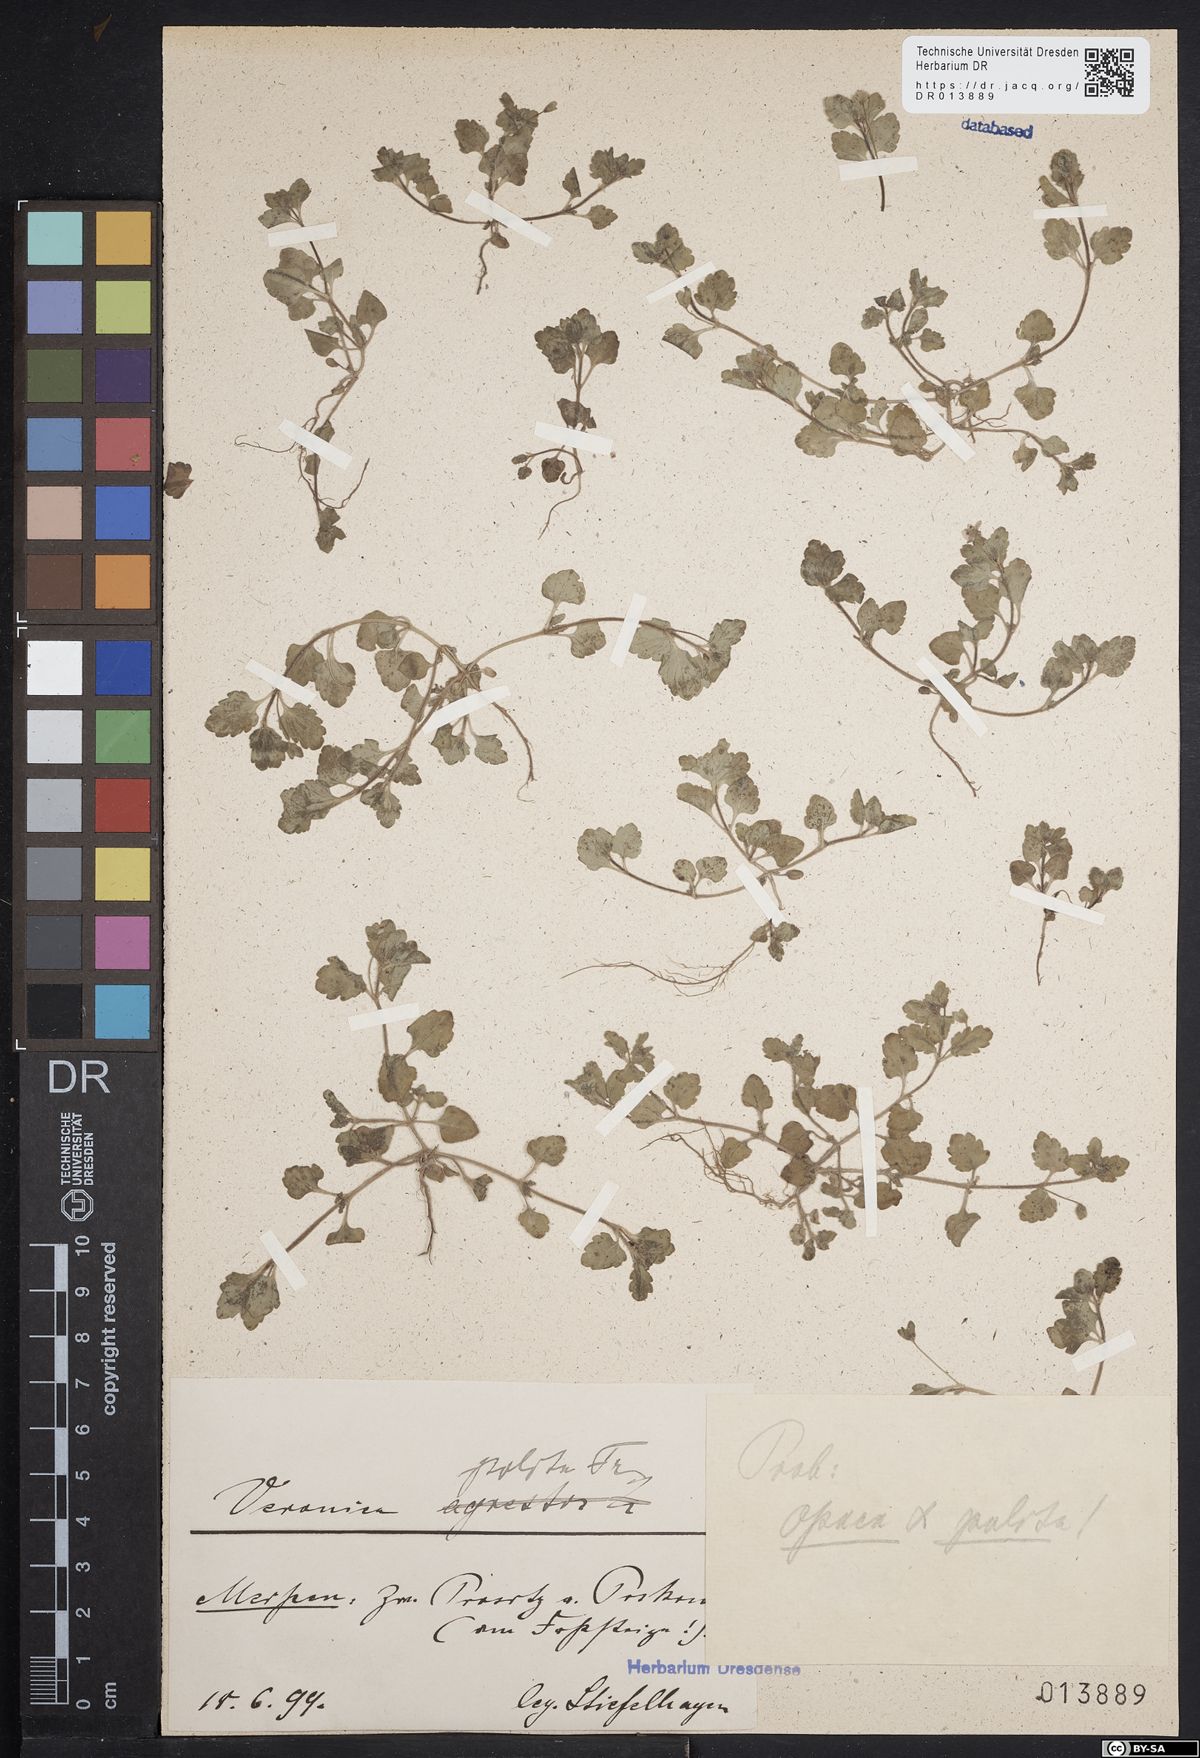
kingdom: Plantae
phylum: Tracheophyta
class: Magnoliopsida
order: Lamiales
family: Plantaginaceae
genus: Veronica
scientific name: Veronica polita
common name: Grey field-speedwell
